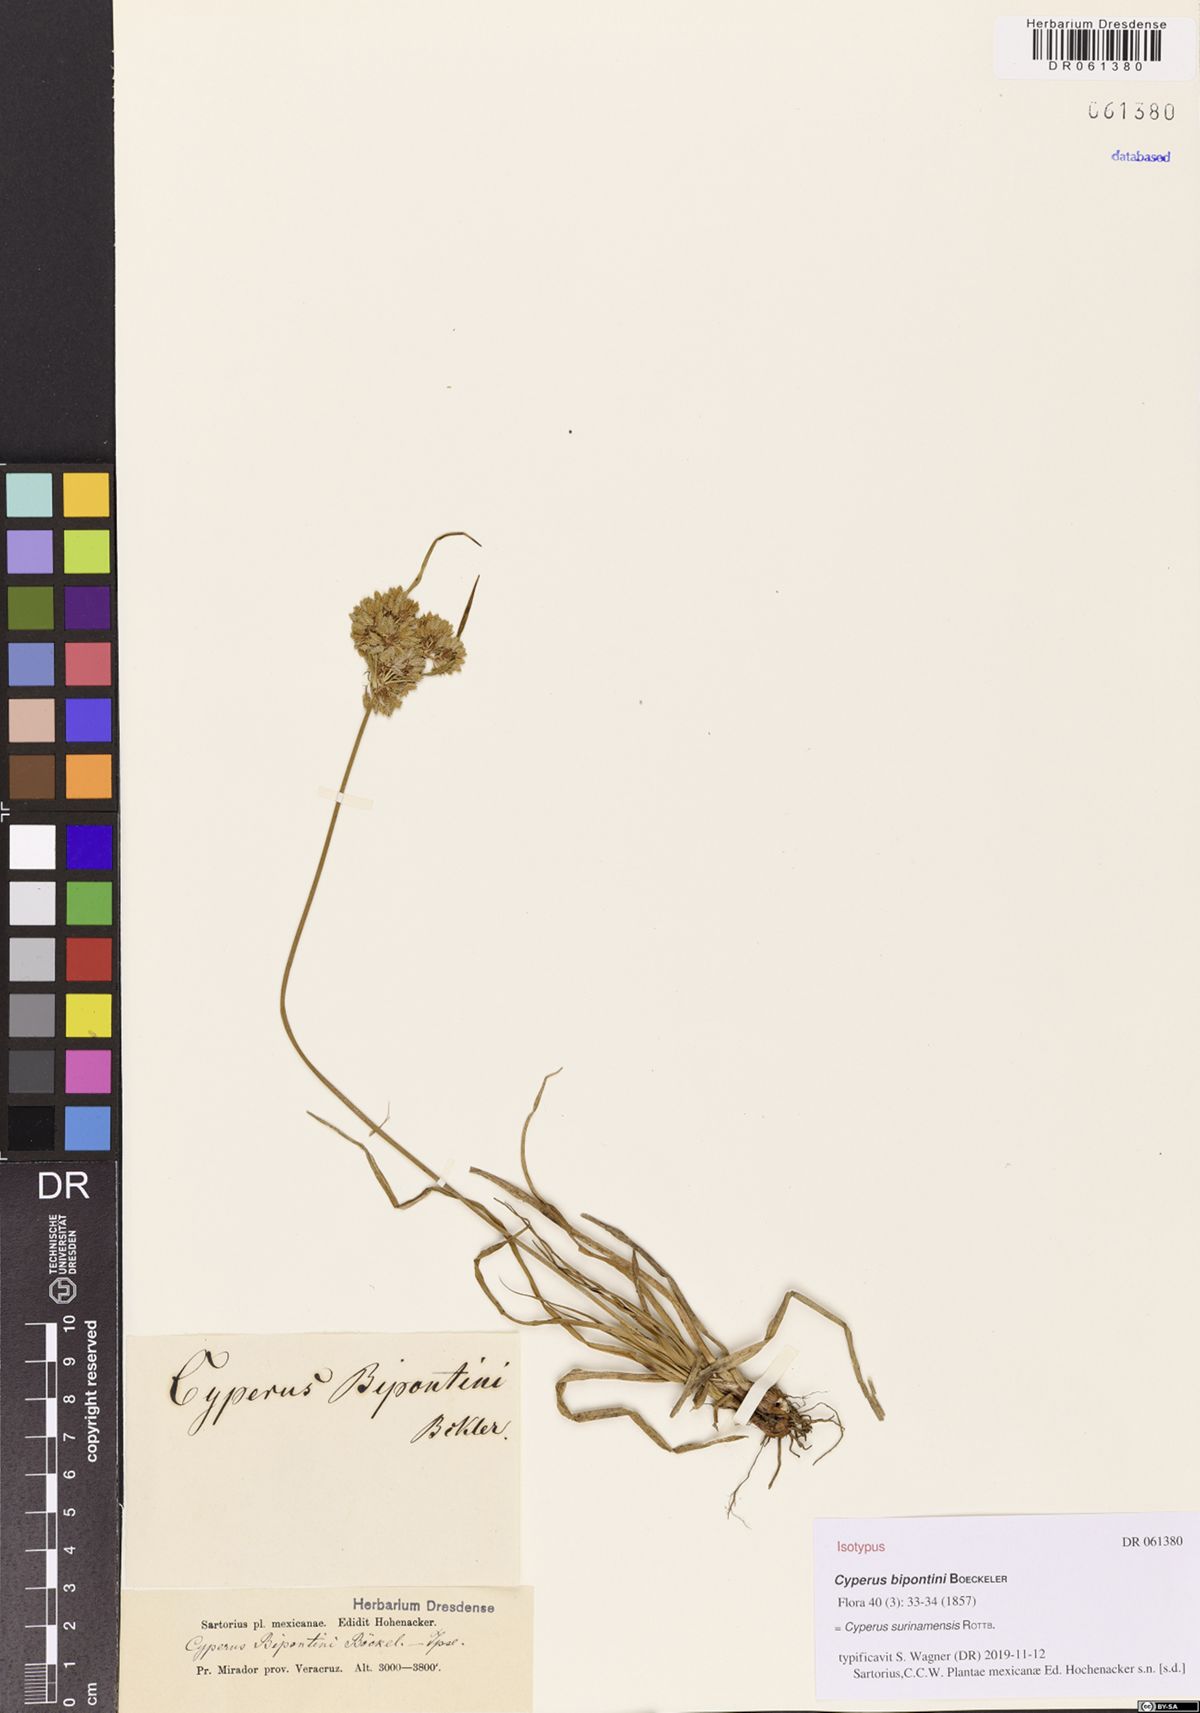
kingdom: Plantae
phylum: Tracheophyta
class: Liliopsida
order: Poales
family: Cyperaceae
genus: Cyperus
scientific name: Cyperus surinamensis
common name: Tropical flat sedge
